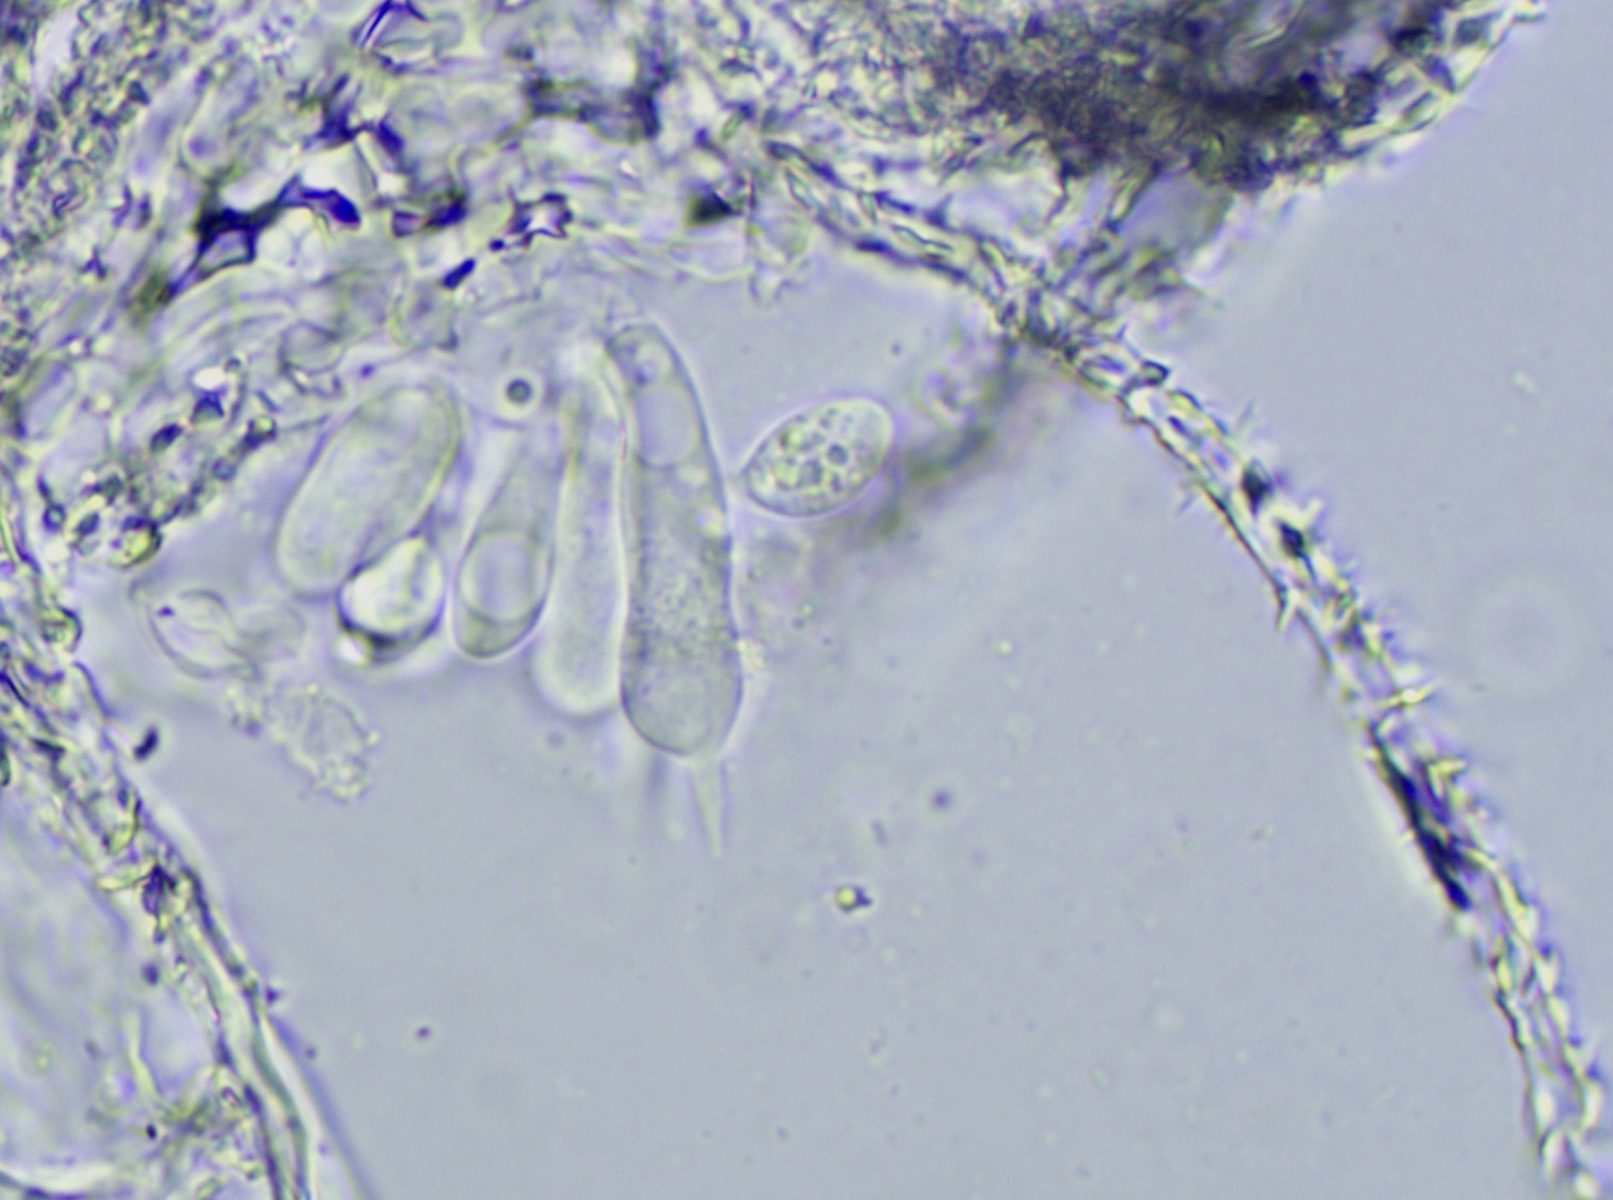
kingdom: Fungi
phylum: Basidiomycota
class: Agaricomycetes
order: Agaricales
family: Niaceae
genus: Flagelloscypha
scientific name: Flagelloscypha minutissima
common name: lille hængeskål
